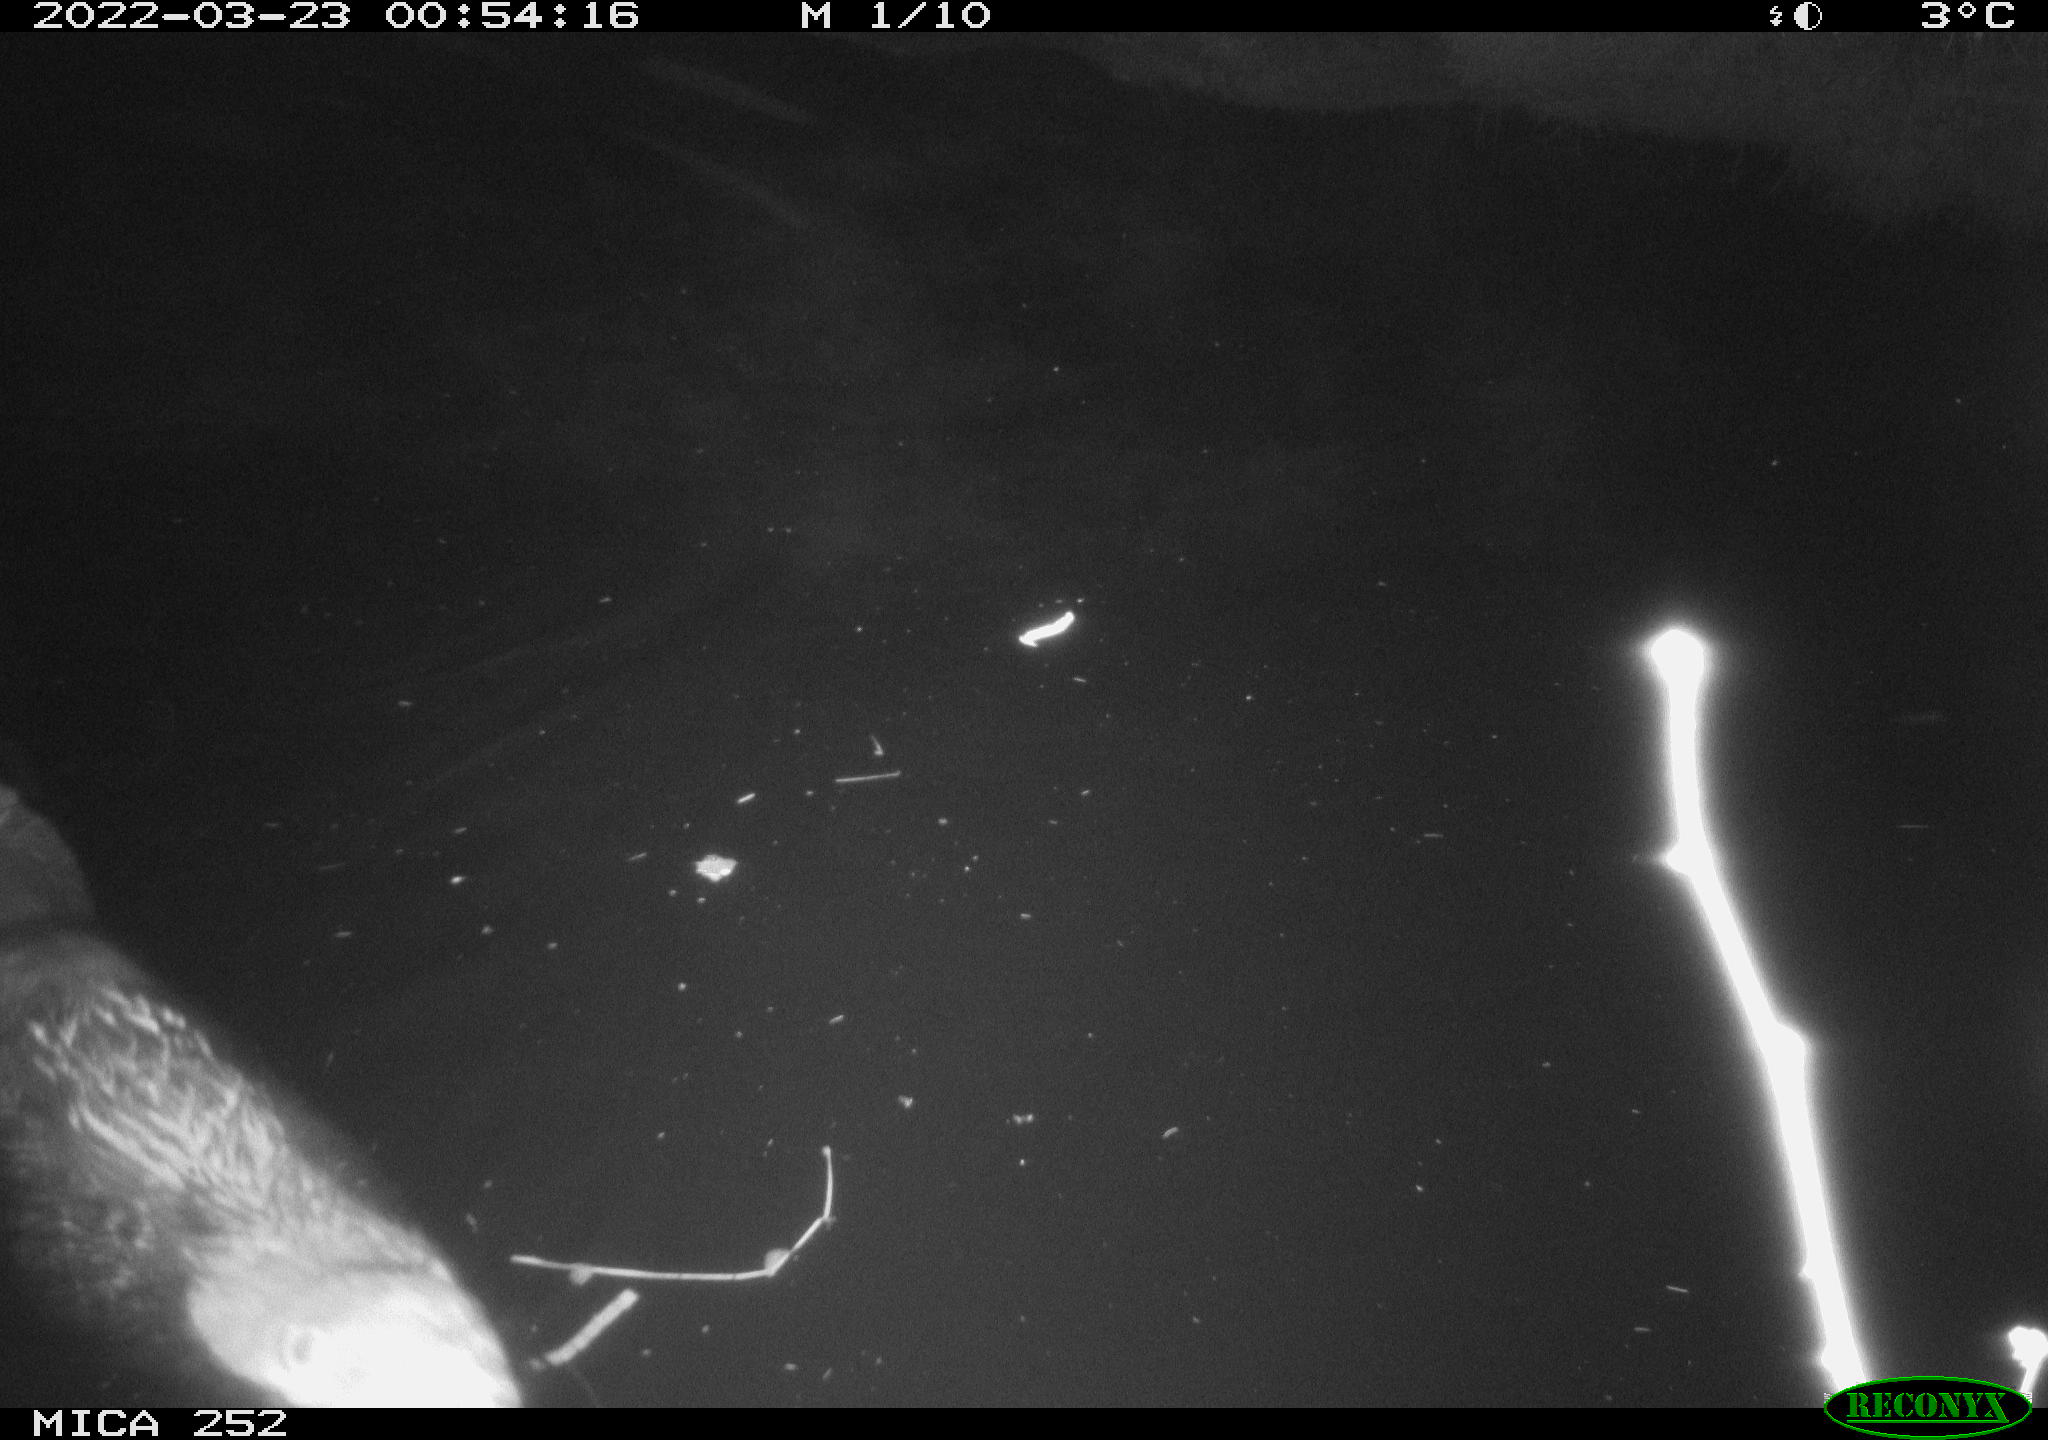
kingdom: Animalia
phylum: Chordata
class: Mammalia
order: Rodentia
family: Castoridae
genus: Castor
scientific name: Castor fiber
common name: Eurasian beaver
